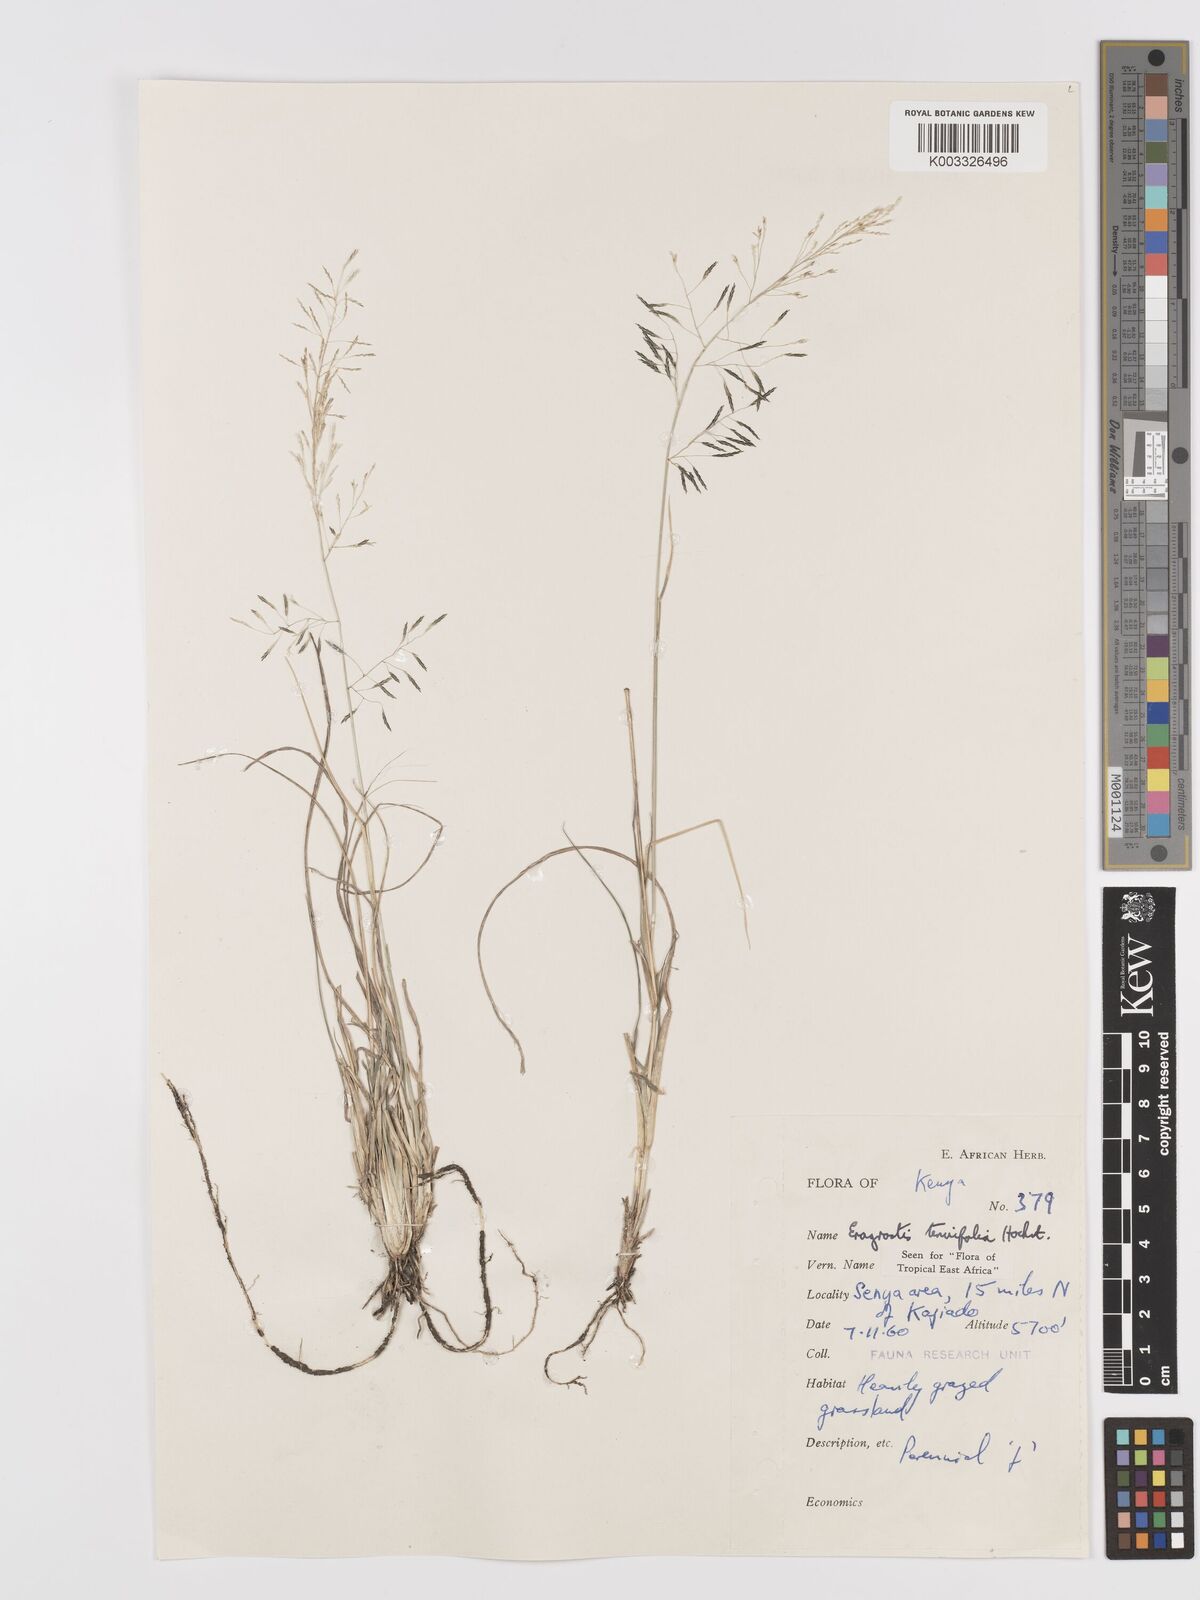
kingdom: Plantae
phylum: Tracheophyta
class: Liliopsida
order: Poales
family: Poaceae
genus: Eragrostis
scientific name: Eragrostis tenuifolia
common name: Elastic grass
